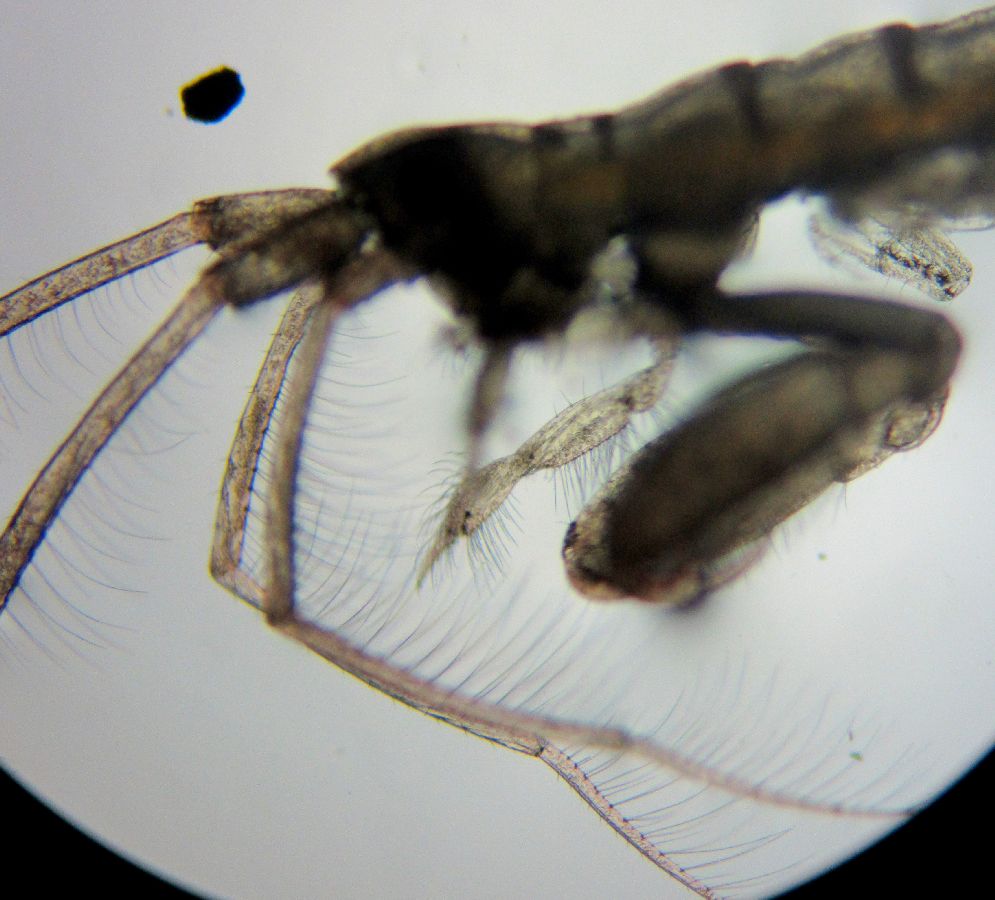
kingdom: Animalia
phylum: Arthropoda
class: Malacostraca
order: Amphipoda
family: Dulichiidae
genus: Dyopedos
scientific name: Dyopedos bispinis
